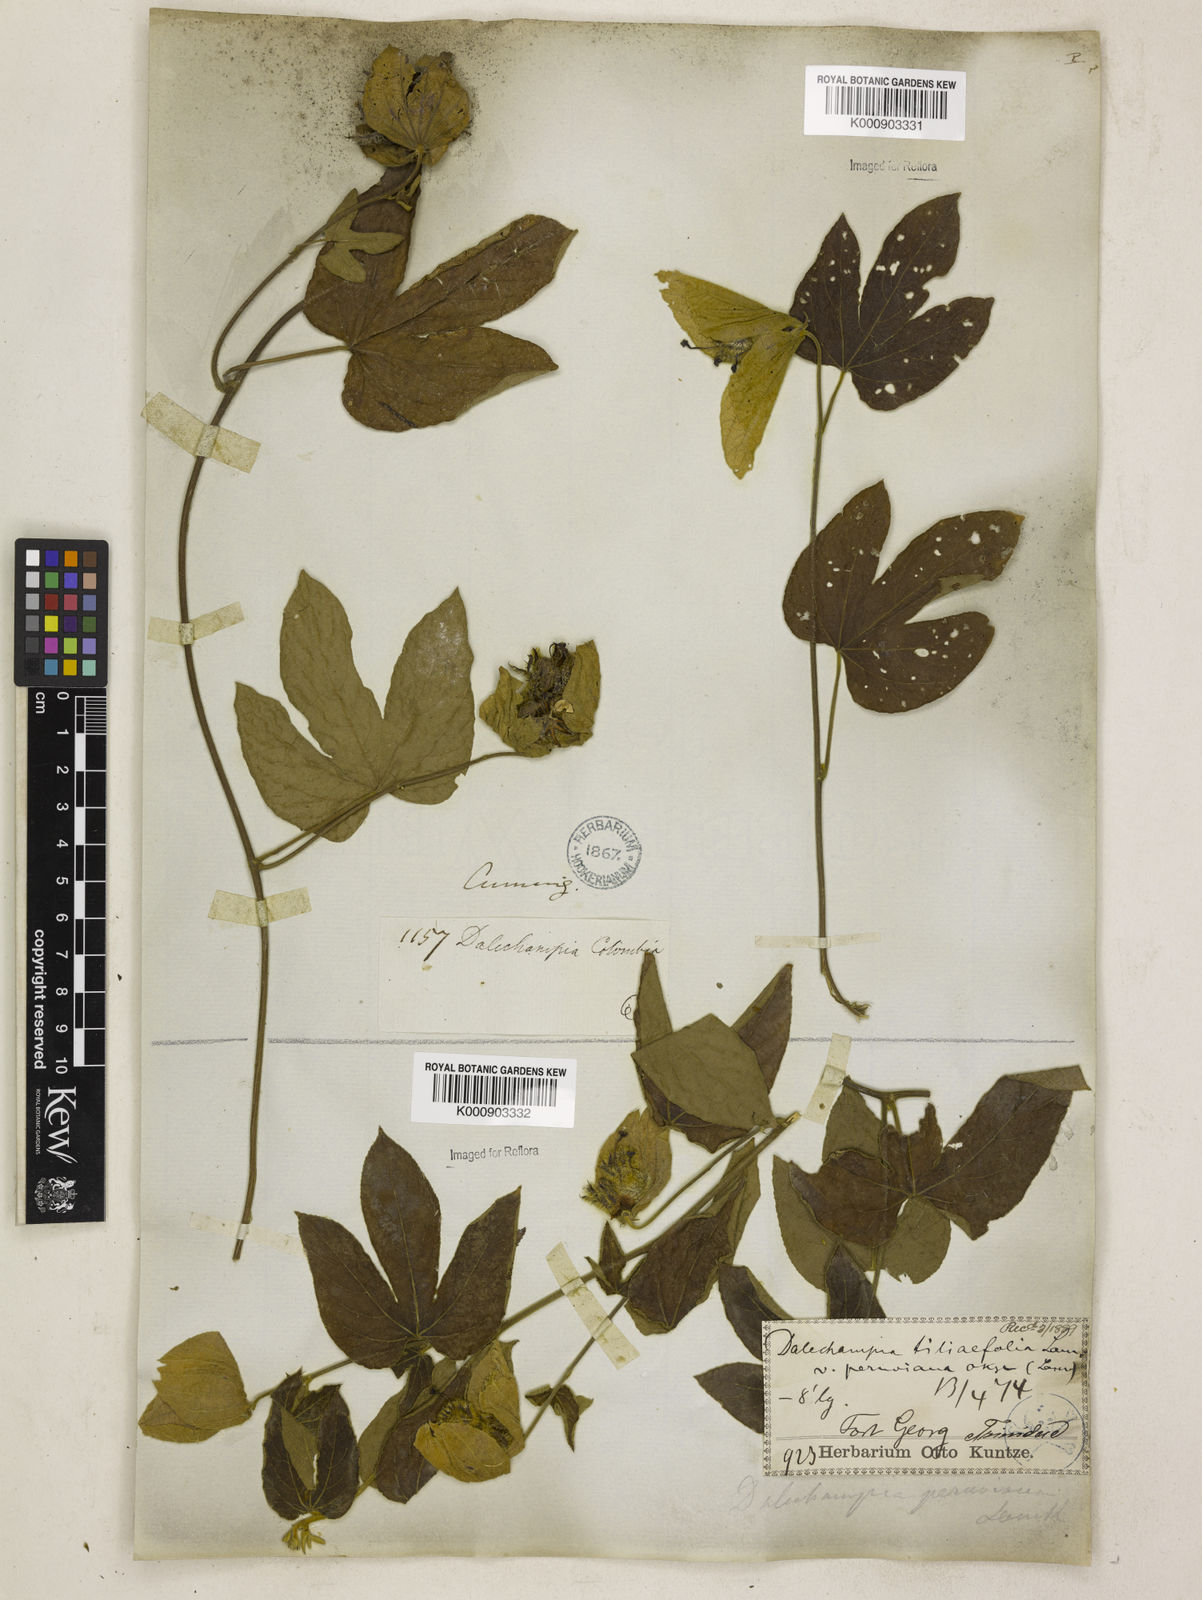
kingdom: Plantae
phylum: Tracheophyta
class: Magnoliopsida
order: Malpighiales
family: Euphorbiaceae
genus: Dalechampia
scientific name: Dalechampia tiliifolia
